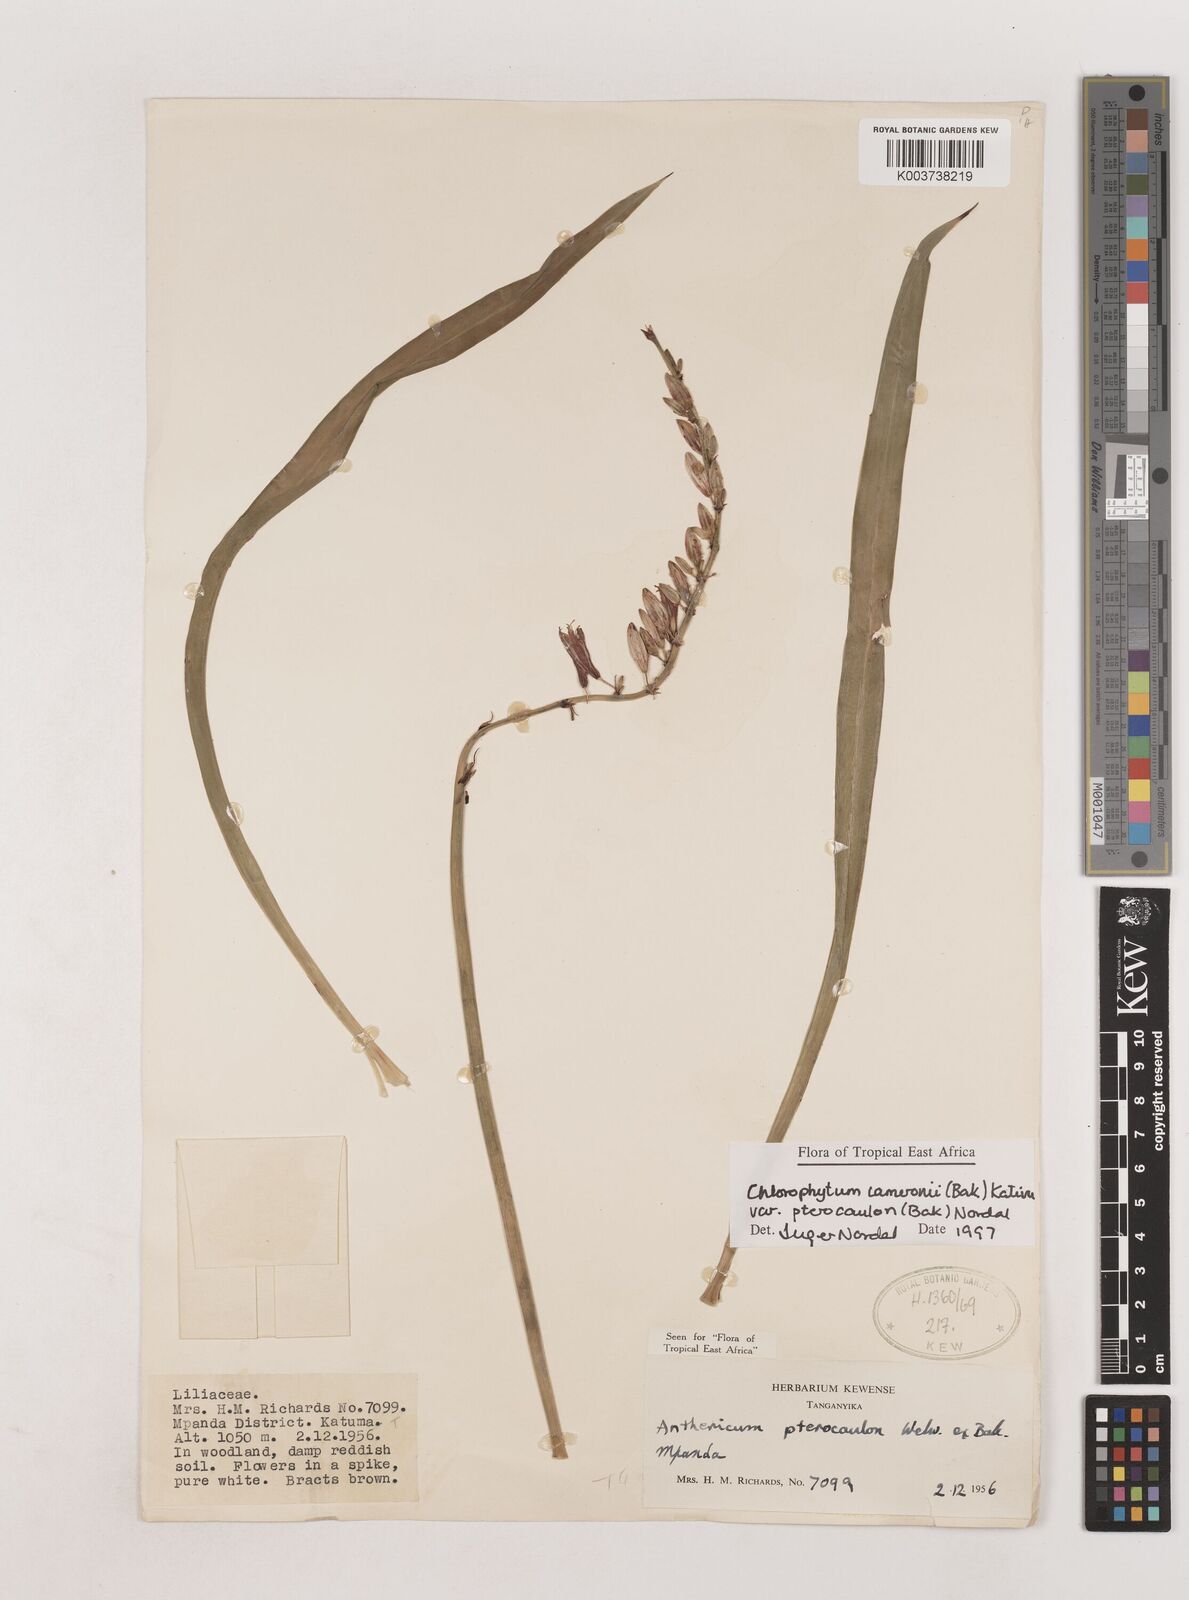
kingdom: Plantae
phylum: Tracheophyta
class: Liliopsida
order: Asparagales
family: Asparagaceae
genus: Chlorophytum
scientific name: Chlorophytum cameronii
